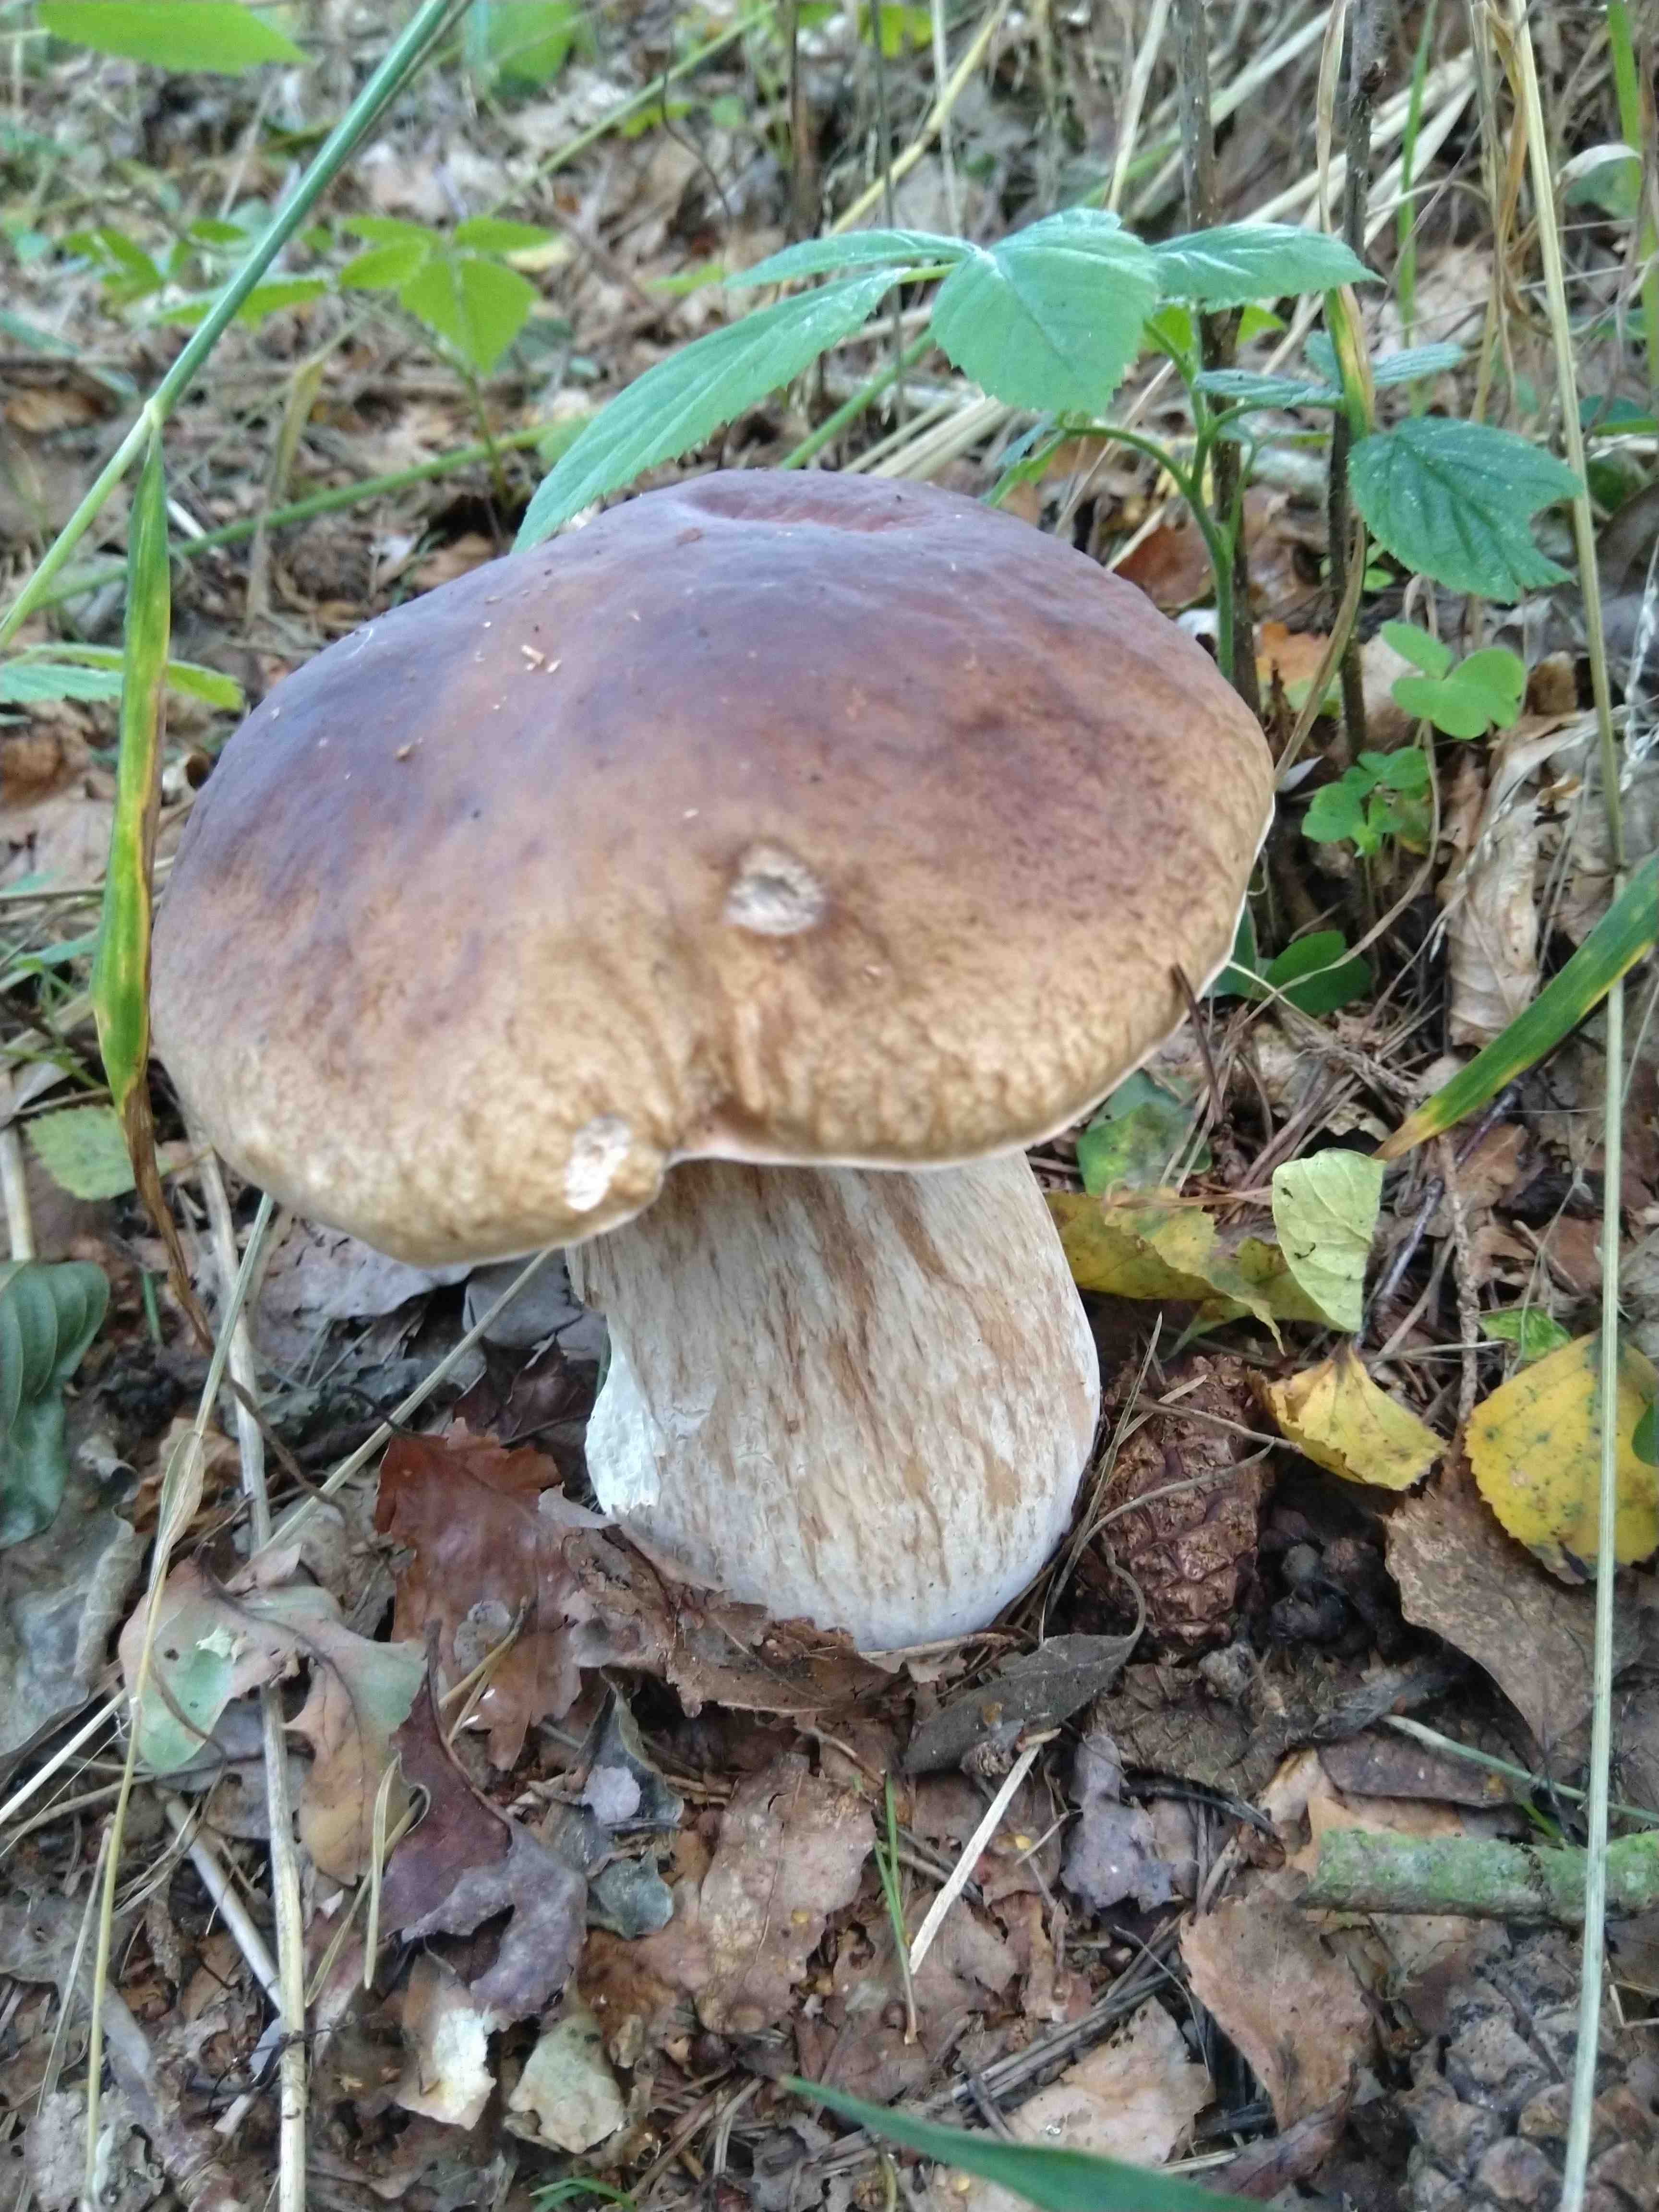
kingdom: Fungi
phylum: Basidiomycota
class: Agaricomycetes
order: Boletales
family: Boletaceae
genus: Boletus
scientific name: Boletus edulis
